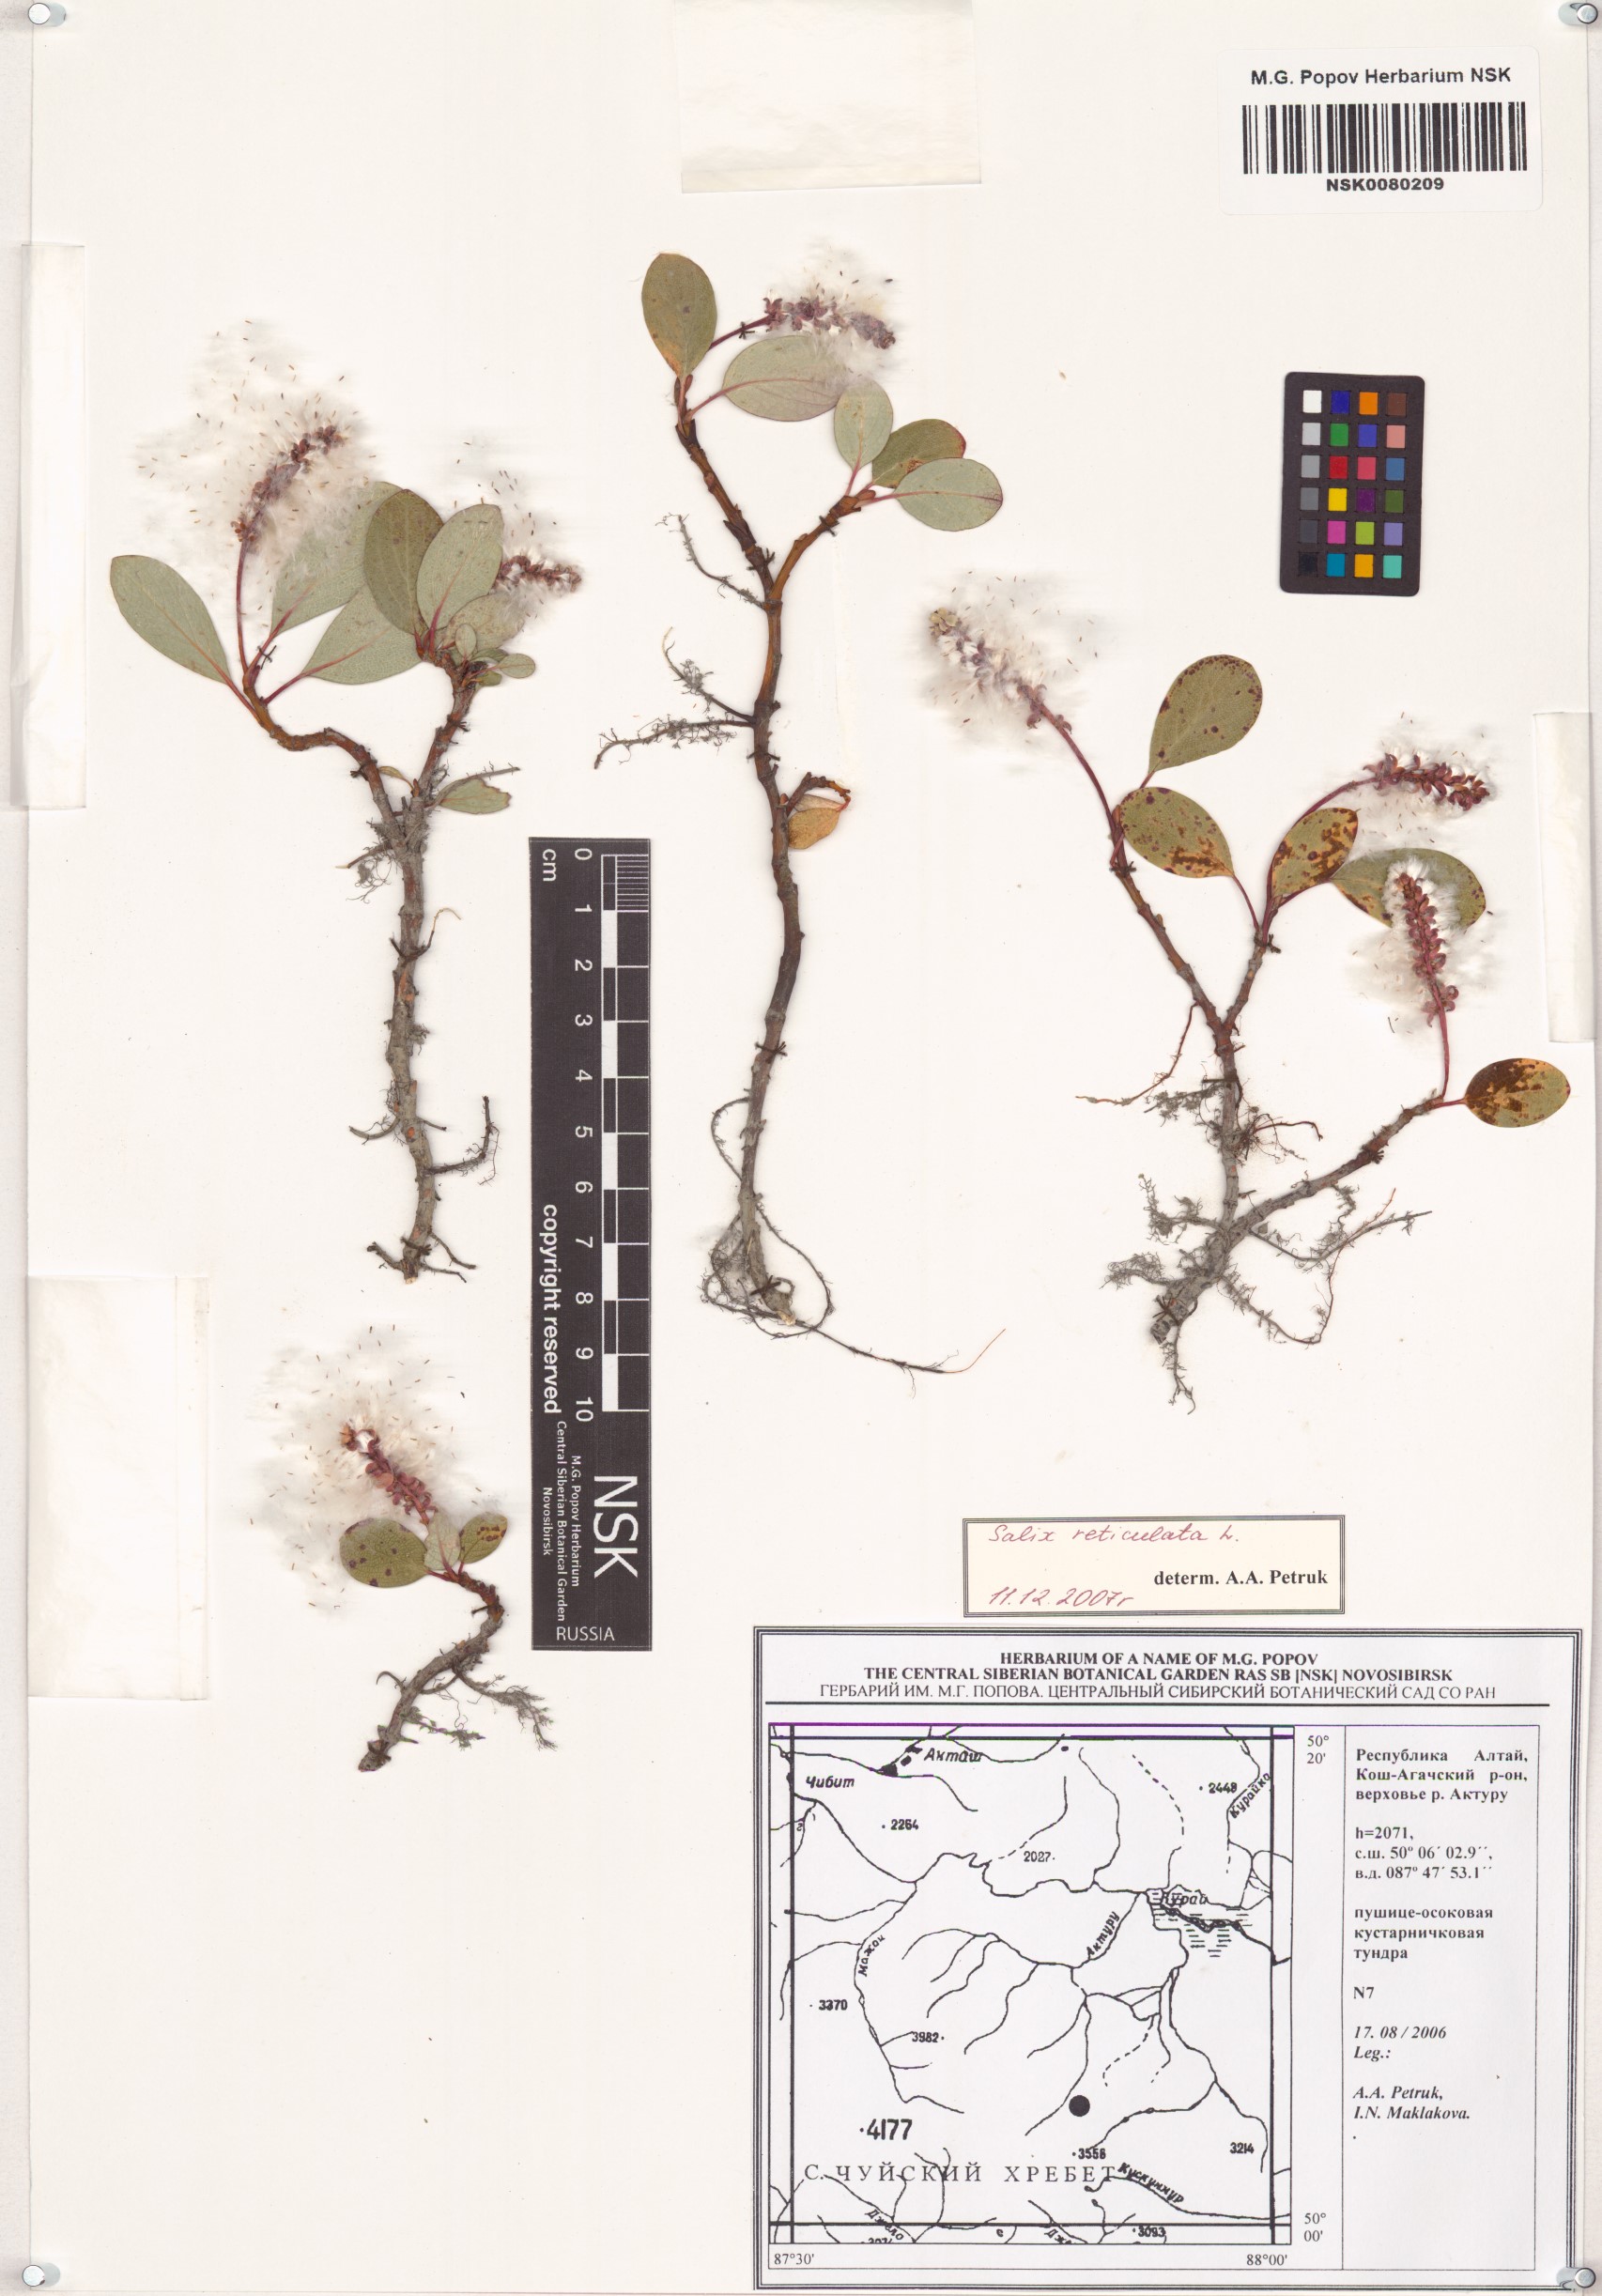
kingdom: Plantae
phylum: Tracheophyta
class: Magnoliopsida
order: Malpighiales
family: Salicaceae
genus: Salix
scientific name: Salix reticulata
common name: Net-leaved willow
